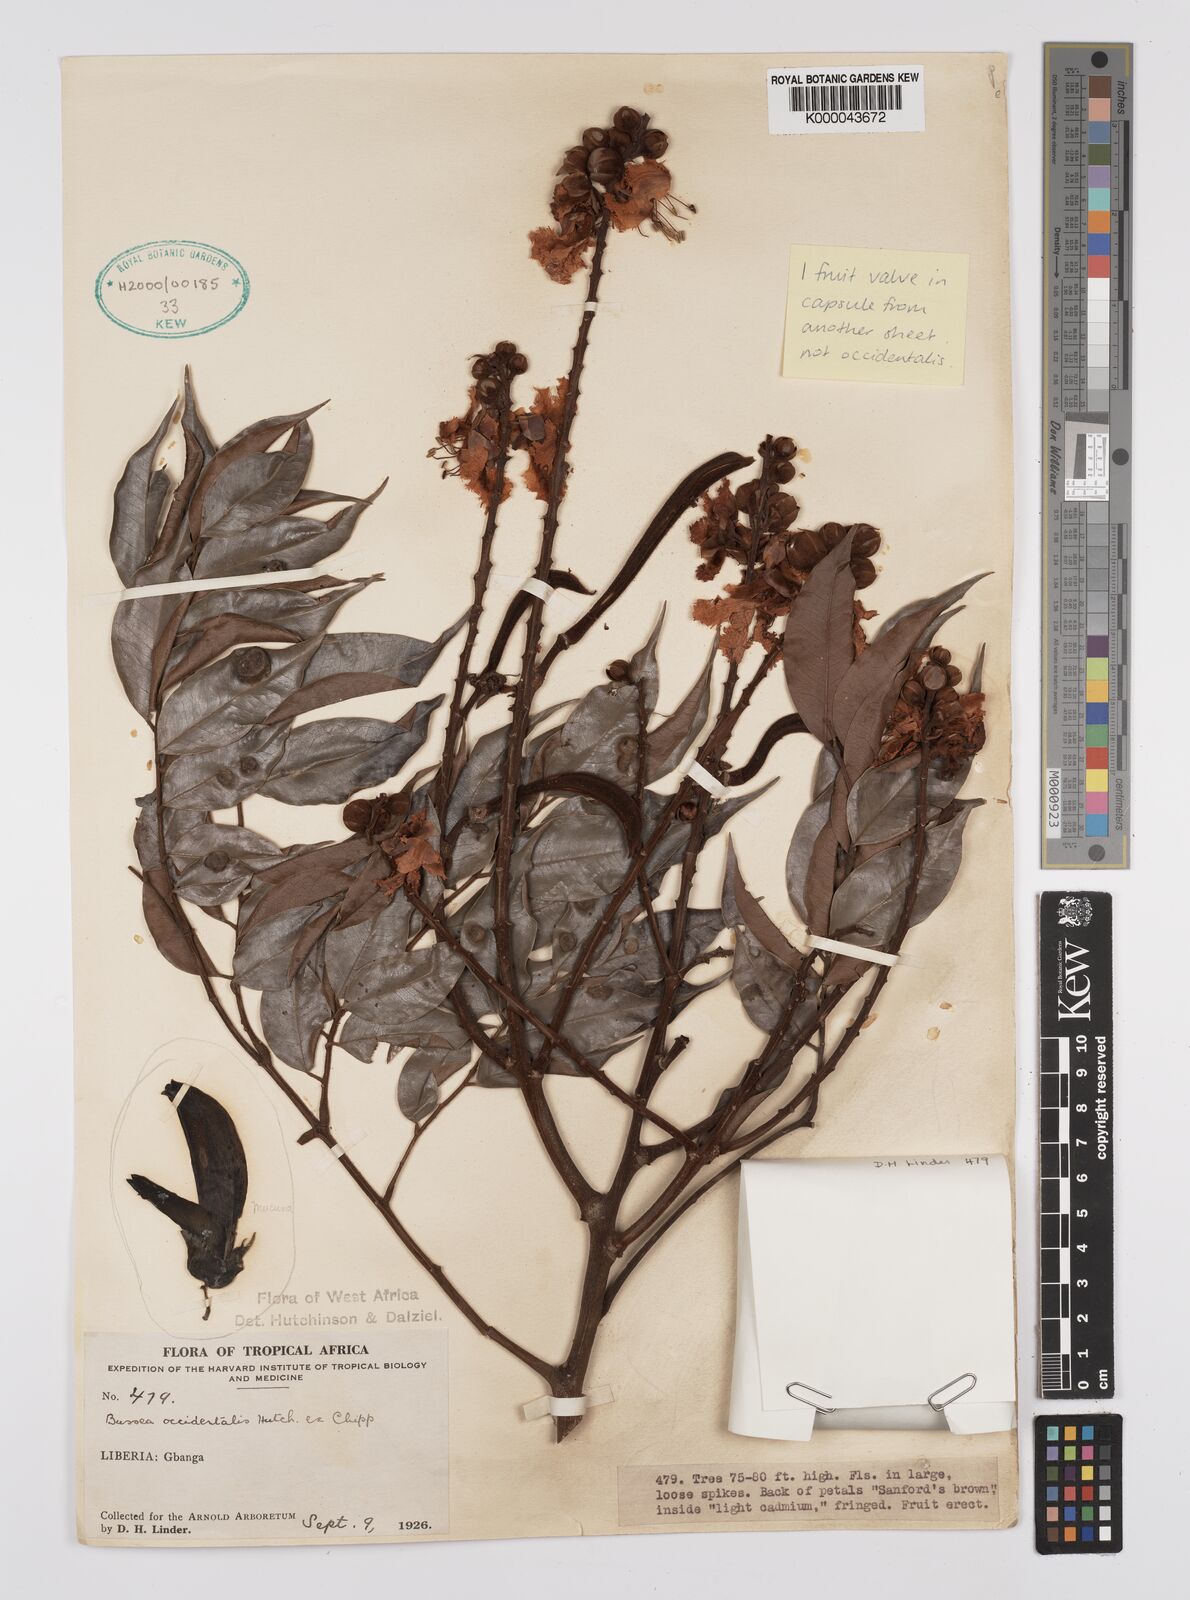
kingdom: Plantae
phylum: Tracheophyta
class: Magnoliopsida
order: Fabales
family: Fabaceae
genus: Bussea
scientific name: Bussea occidentalis
